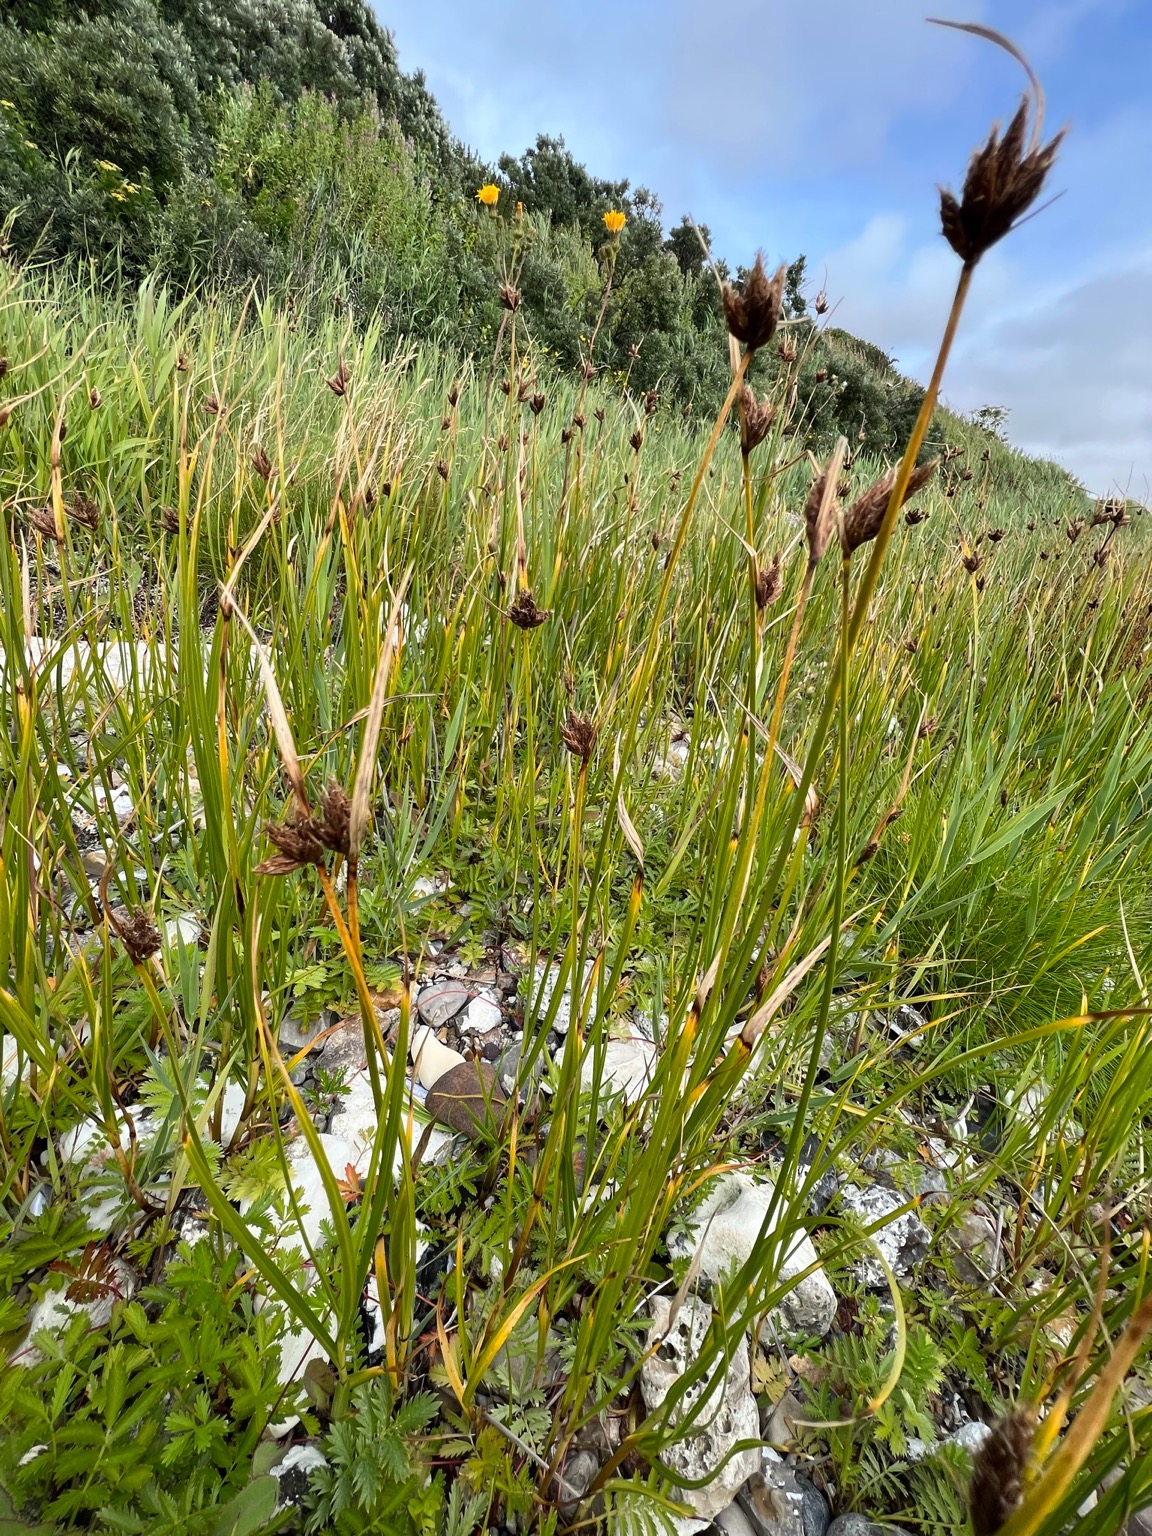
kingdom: Plantae
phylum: Tracheophyta
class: Liliopsida
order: Poales
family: Cyperaceae
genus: Bolboschoenus
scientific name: Bolboschoenus maritimus
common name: Strand-kogleaks
